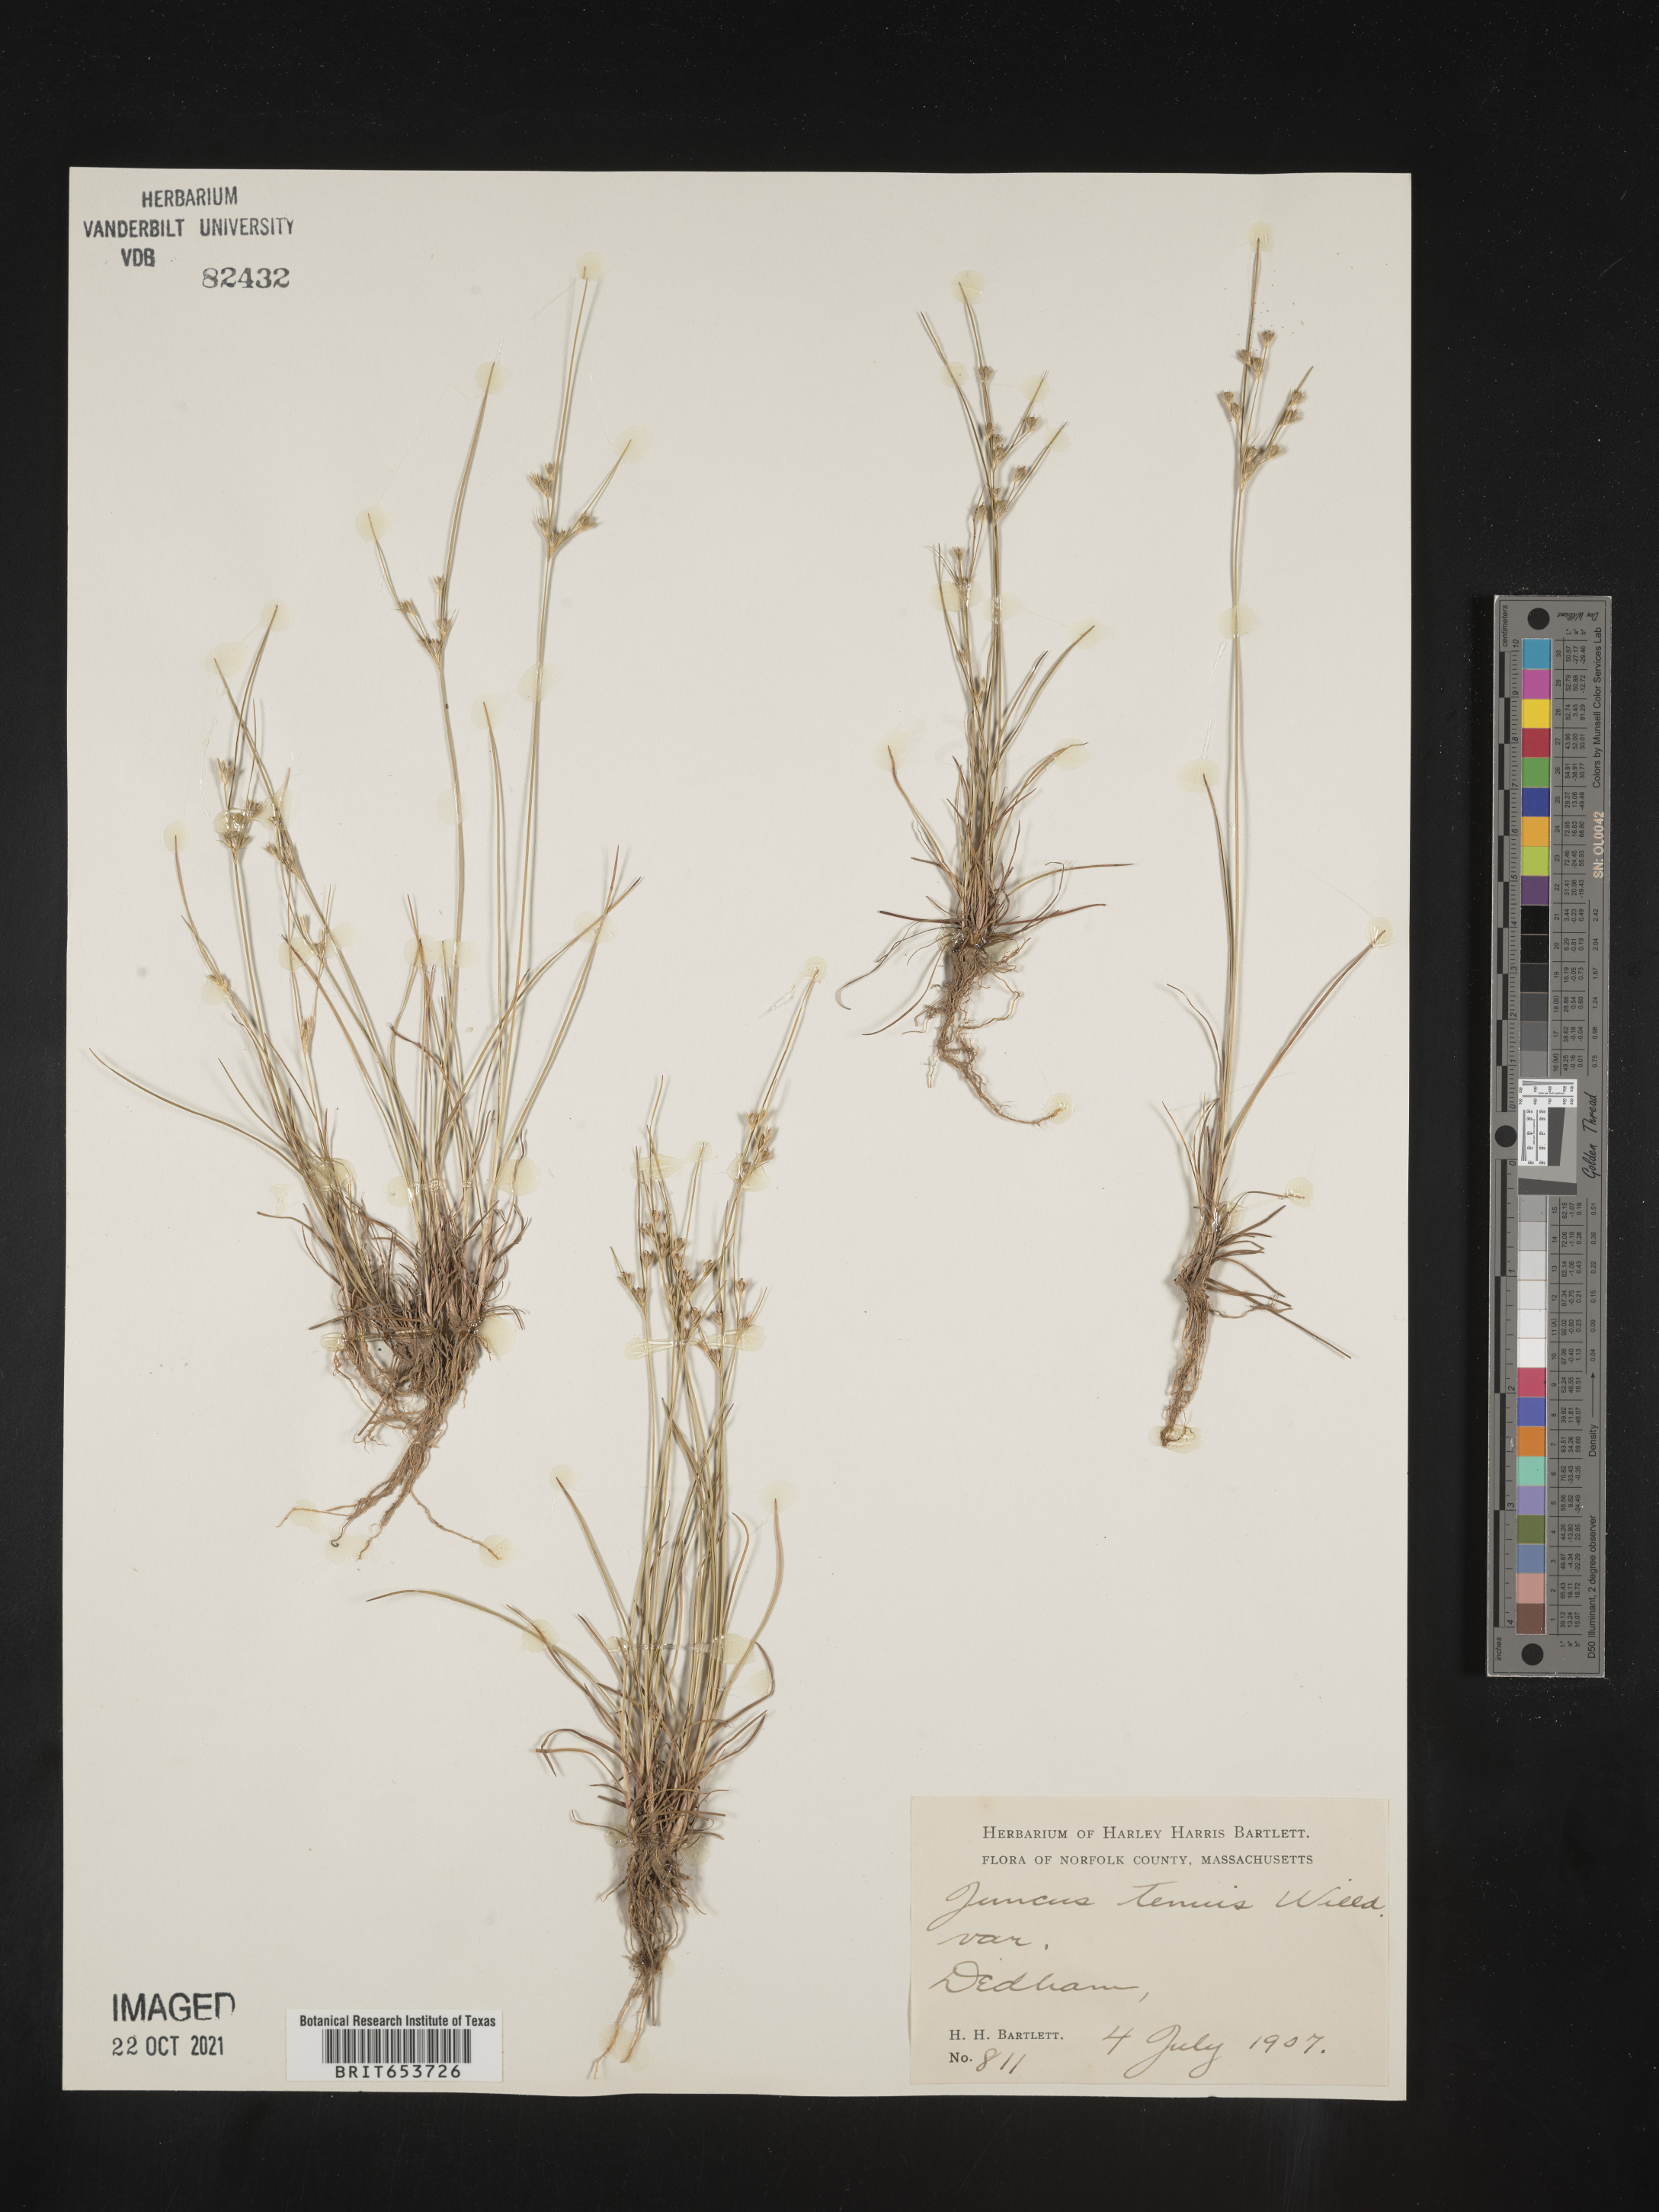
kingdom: Plantae
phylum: Tracheophyta
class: Liliopsida
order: Poales
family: Juncaceae
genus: Juncus
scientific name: Juncus tenuis
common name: Slender rush
